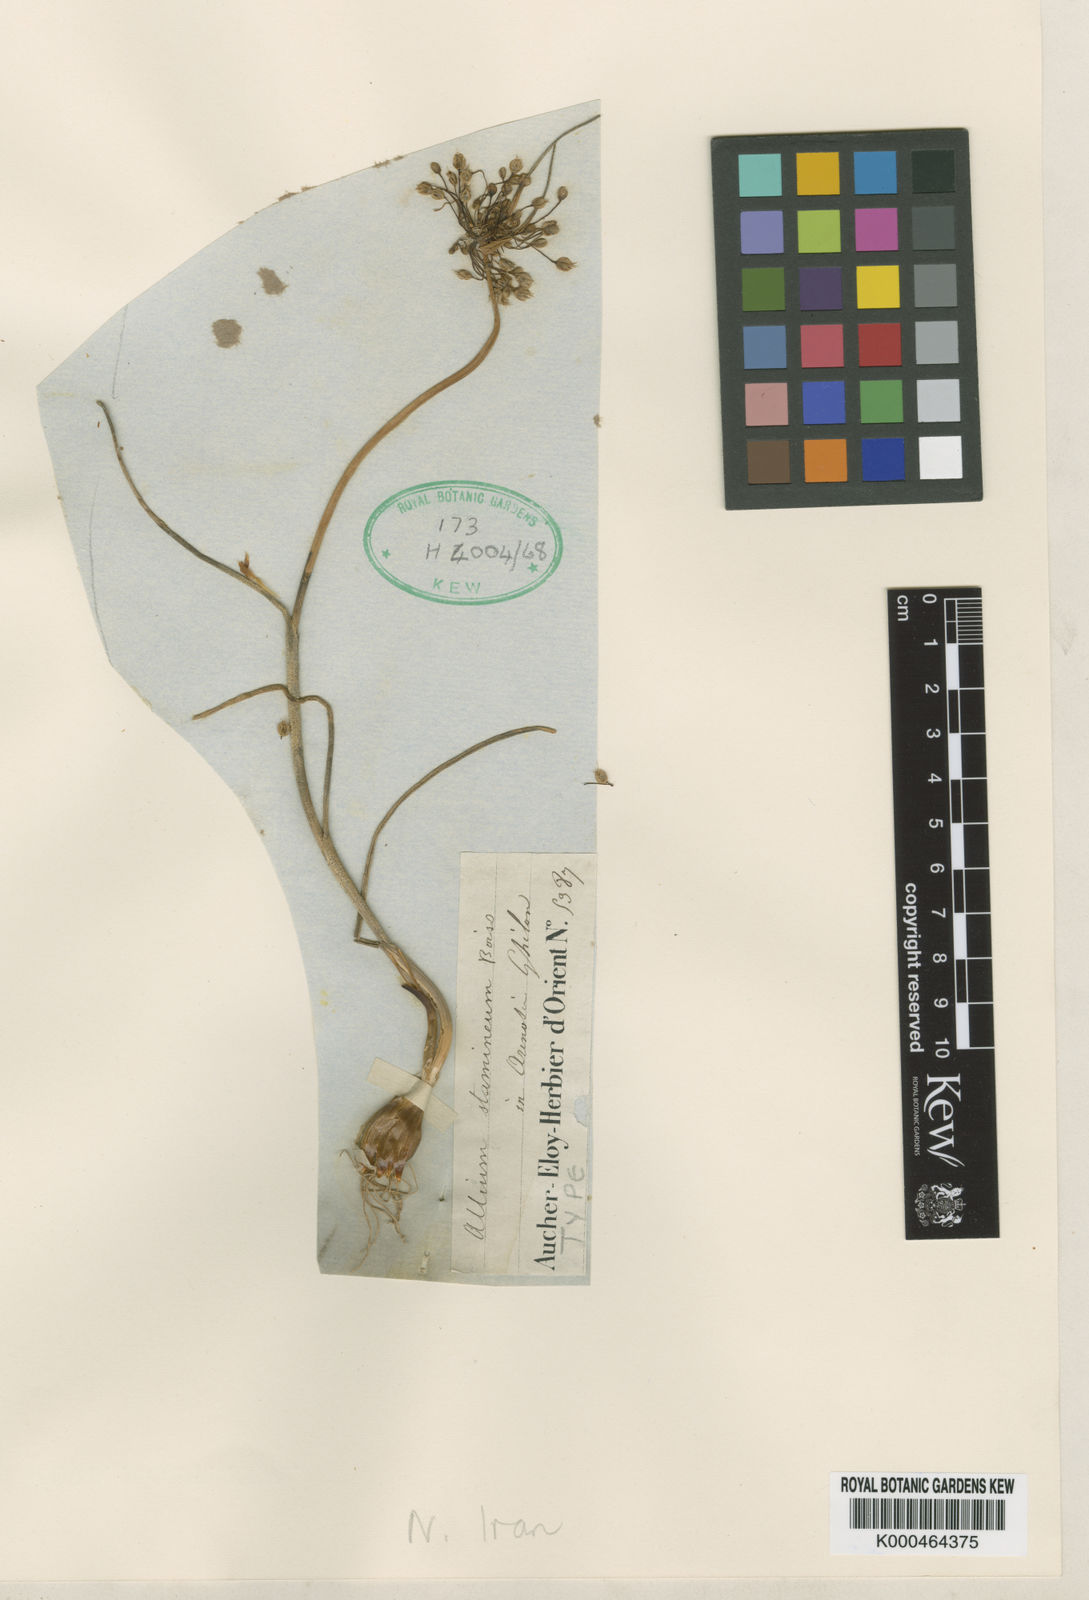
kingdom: Plantae
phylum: Tracheophyta
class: Liliopsida
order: Asparagales
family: Amaryllidaceae
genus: Allium
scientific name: Allium stamineum
